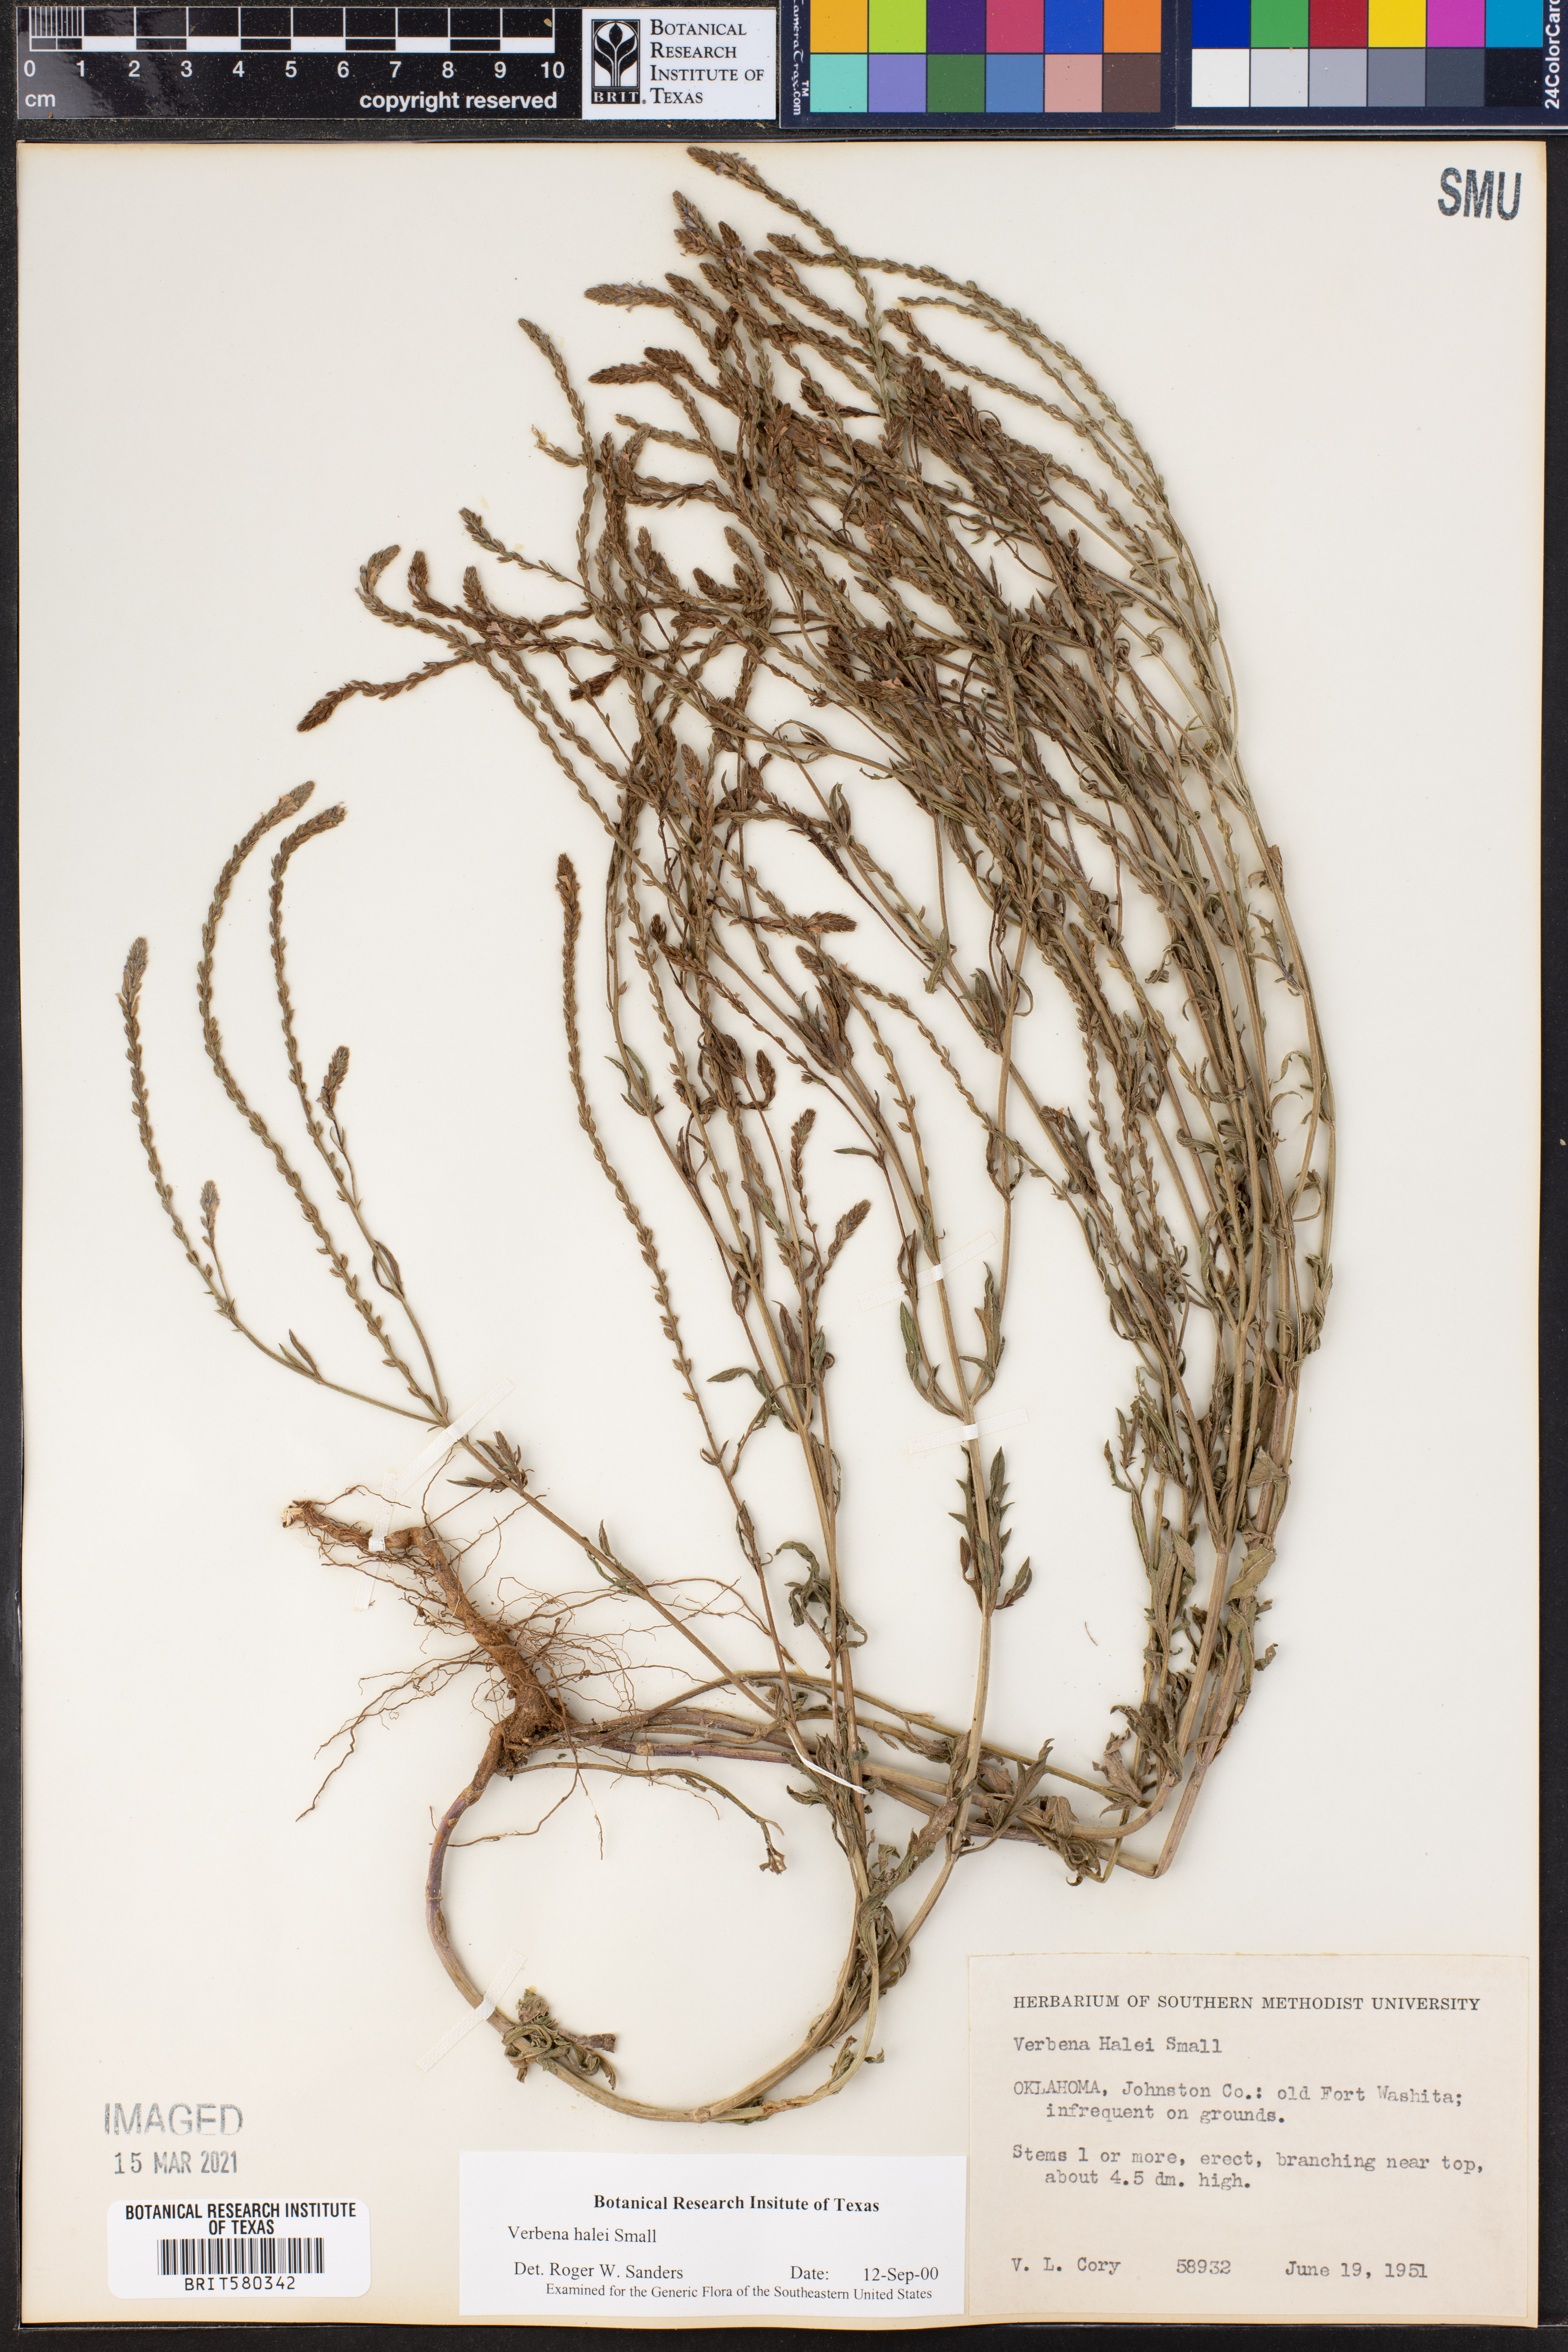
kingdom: Plantae
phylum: Tracheophyta
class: Magnoliopsida
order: Lamiales
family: Verbenaceae
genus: Verbena
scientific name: Verbena halei
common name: Texas vervain
